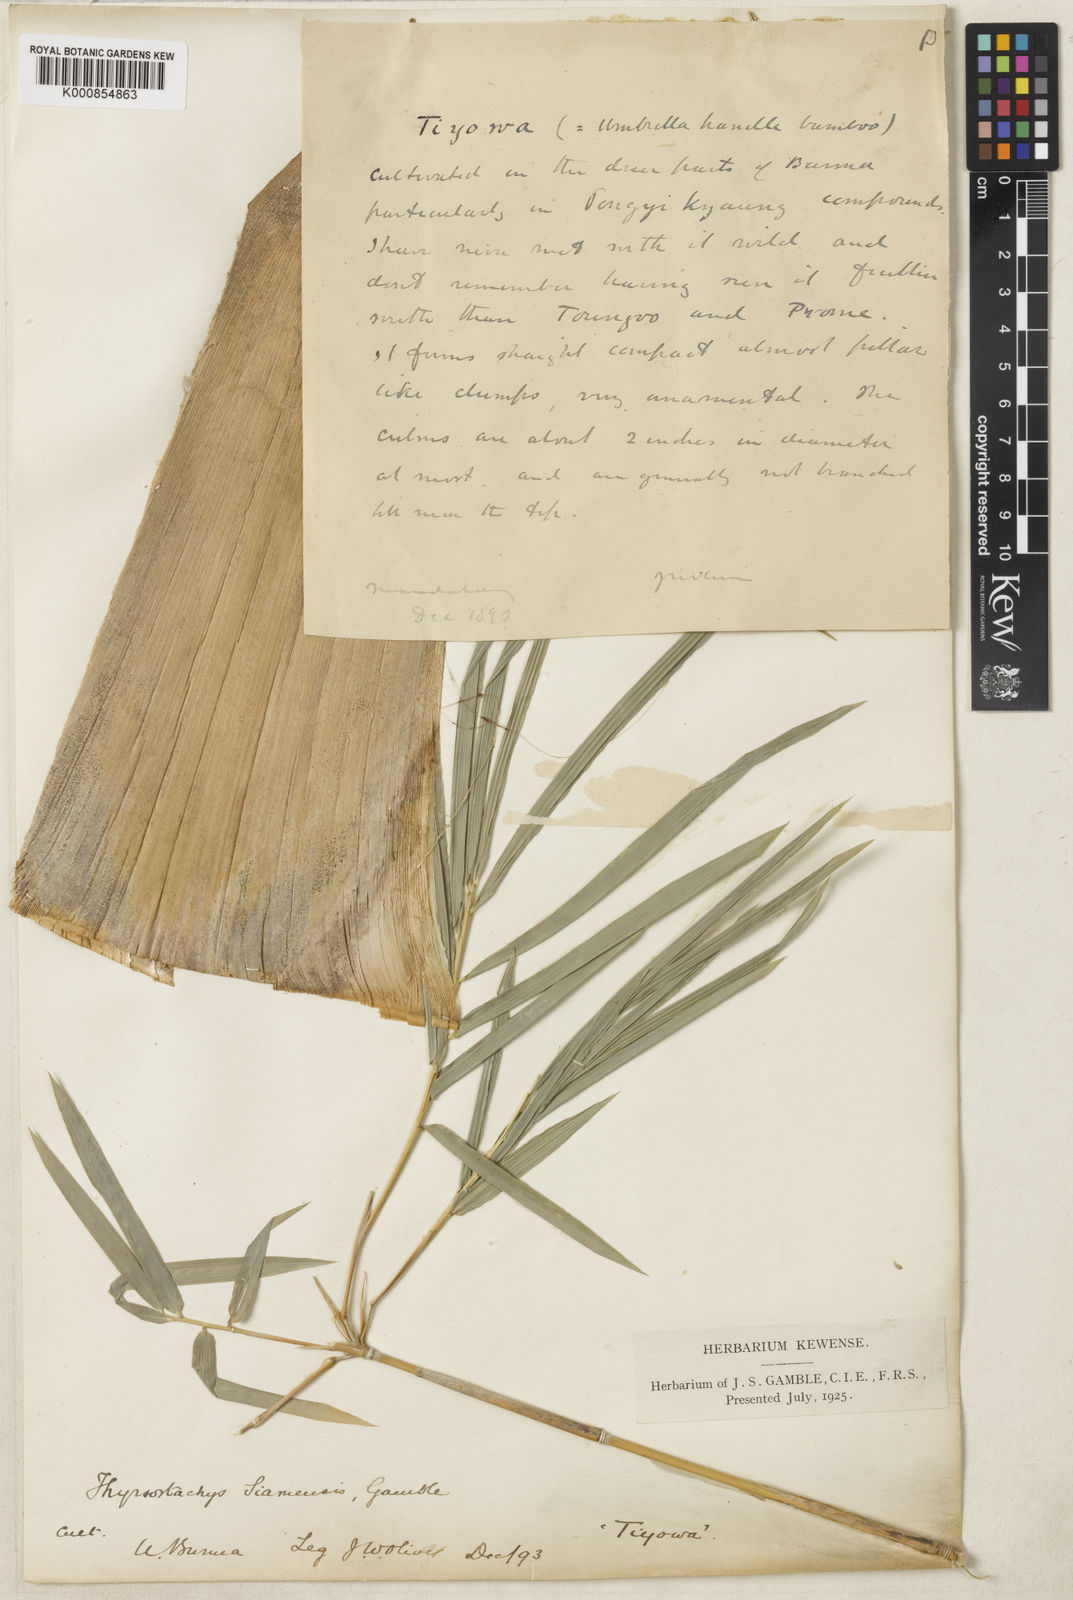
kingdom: Plantae
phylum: Tracheophyta
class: Liliopsida
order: Poales
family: Poaceae
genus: Thyrsostachys
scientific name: Thyrsostachys siamensis
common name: Thailand bamboo
